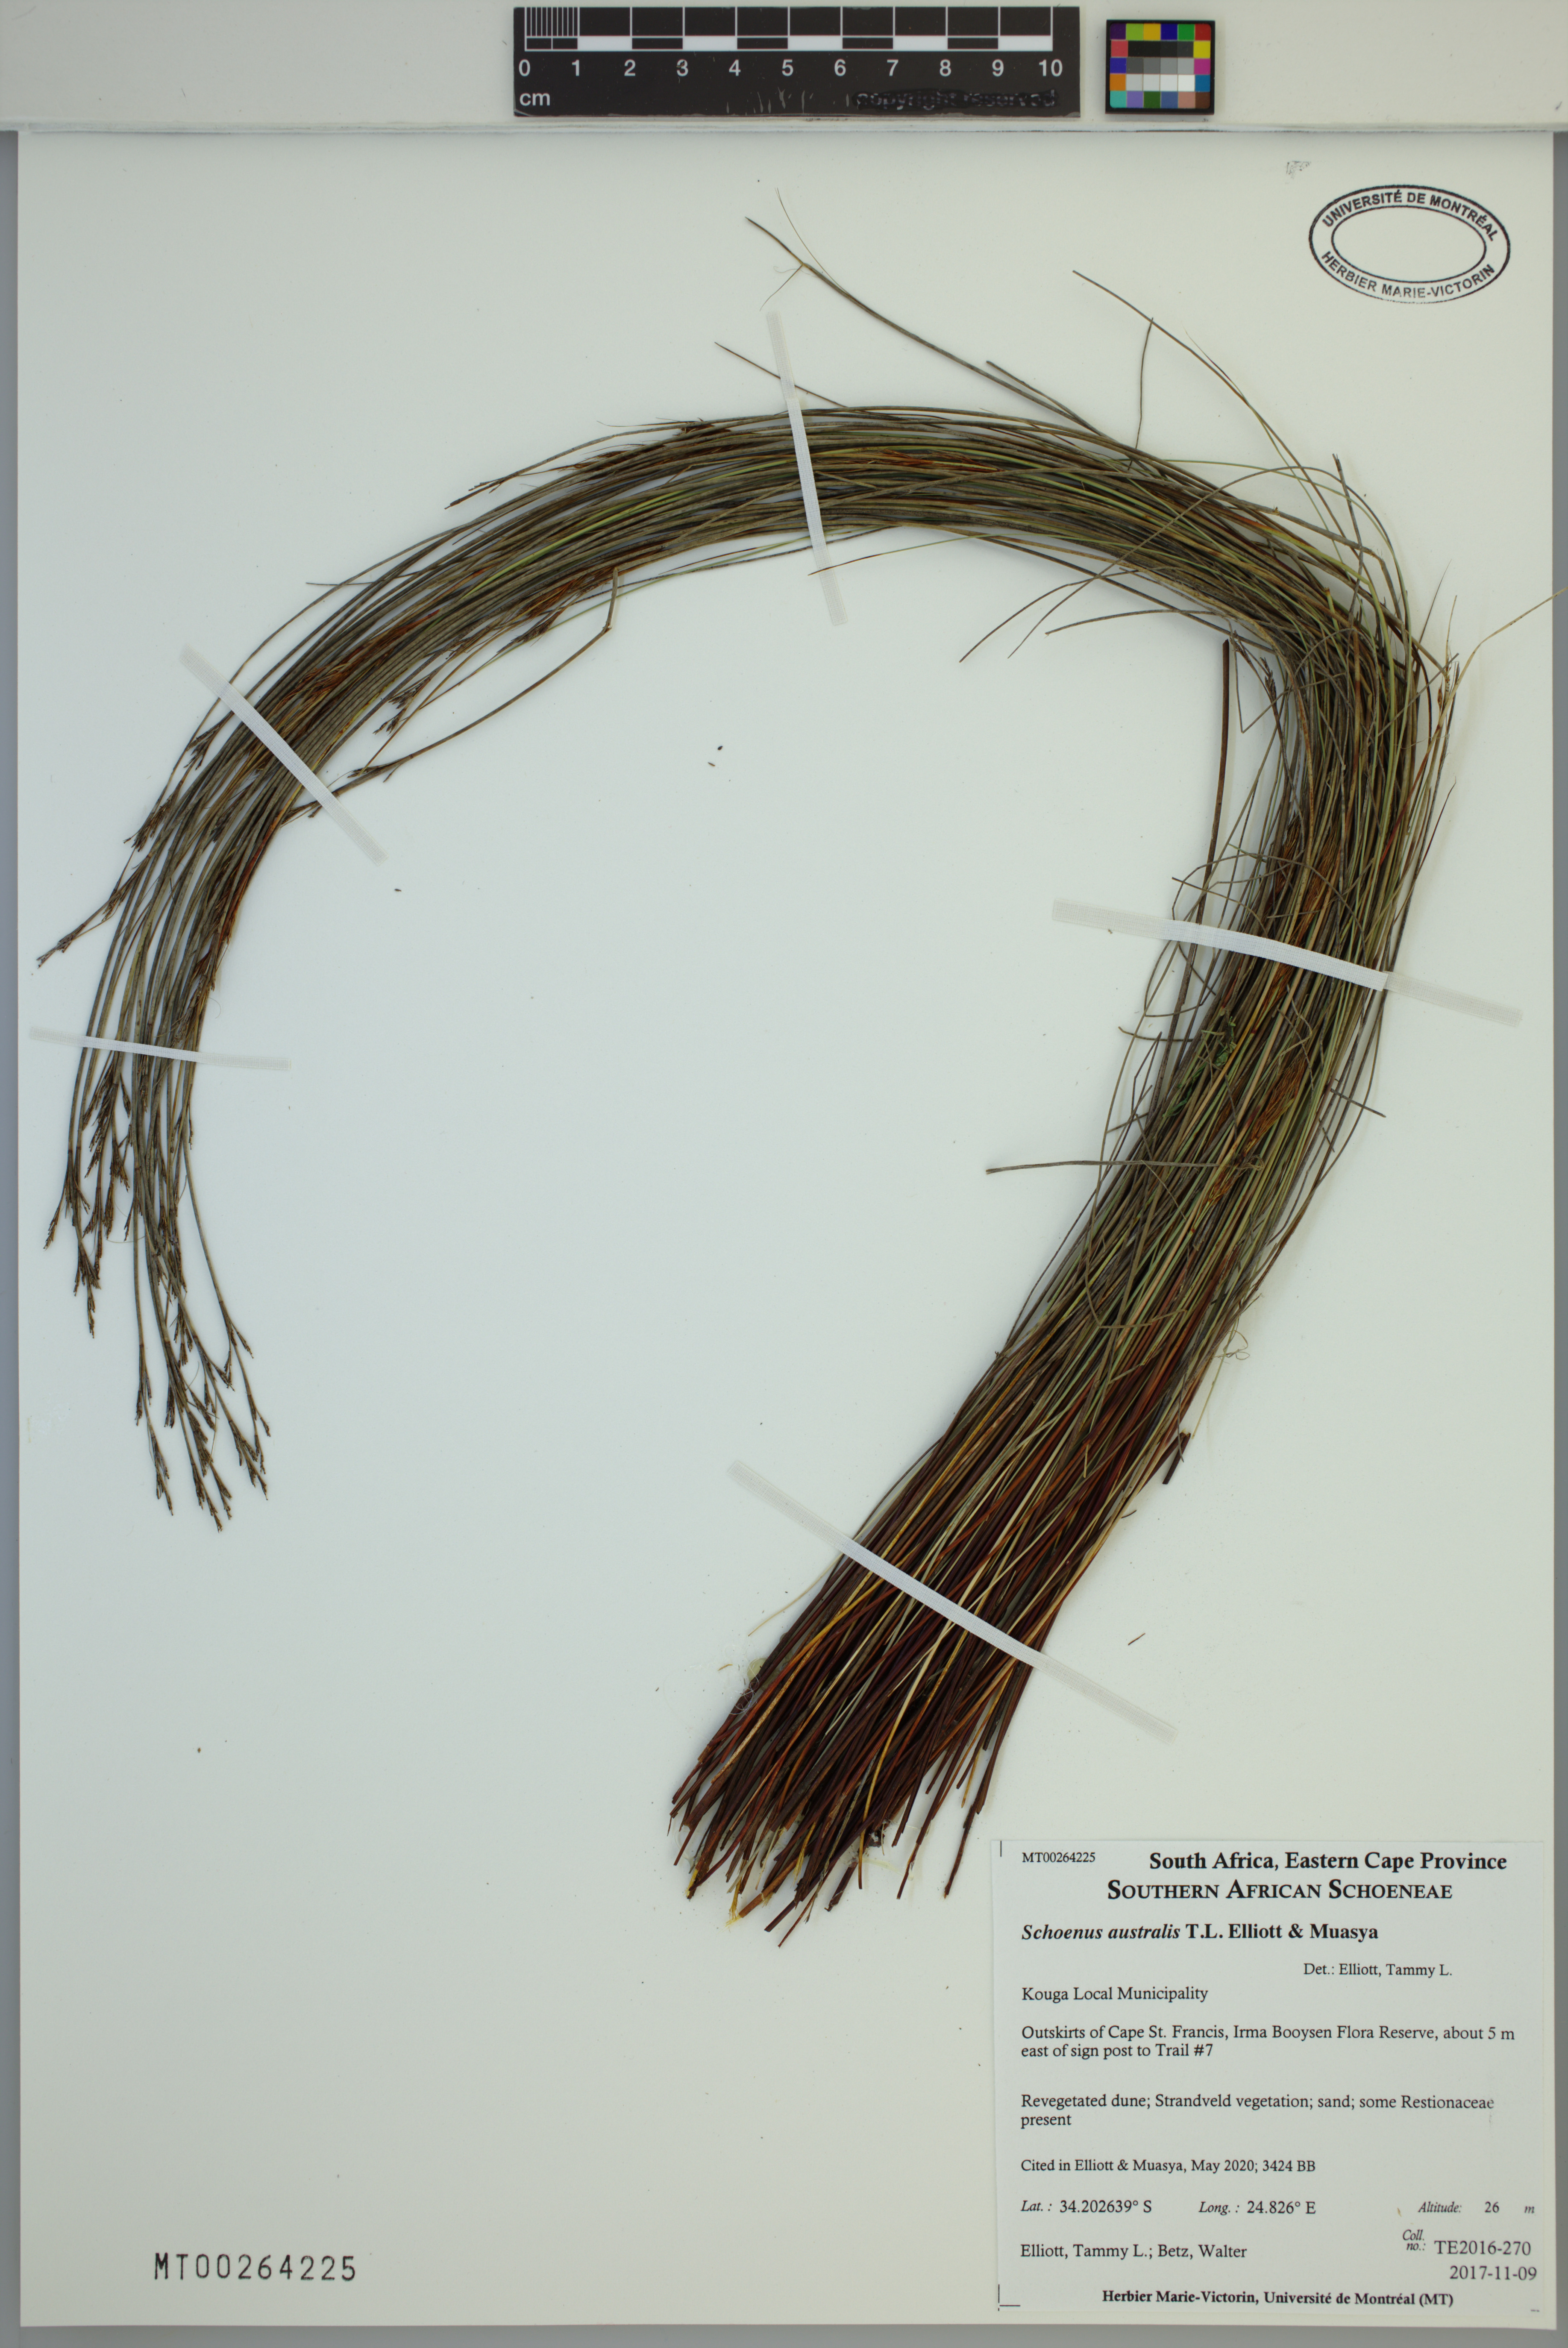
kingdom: Plantae
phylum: Tracheophyta
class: Liliopsida
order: Poales
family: Cyperaceae
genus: Schoenus
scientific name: Schoenus australis
